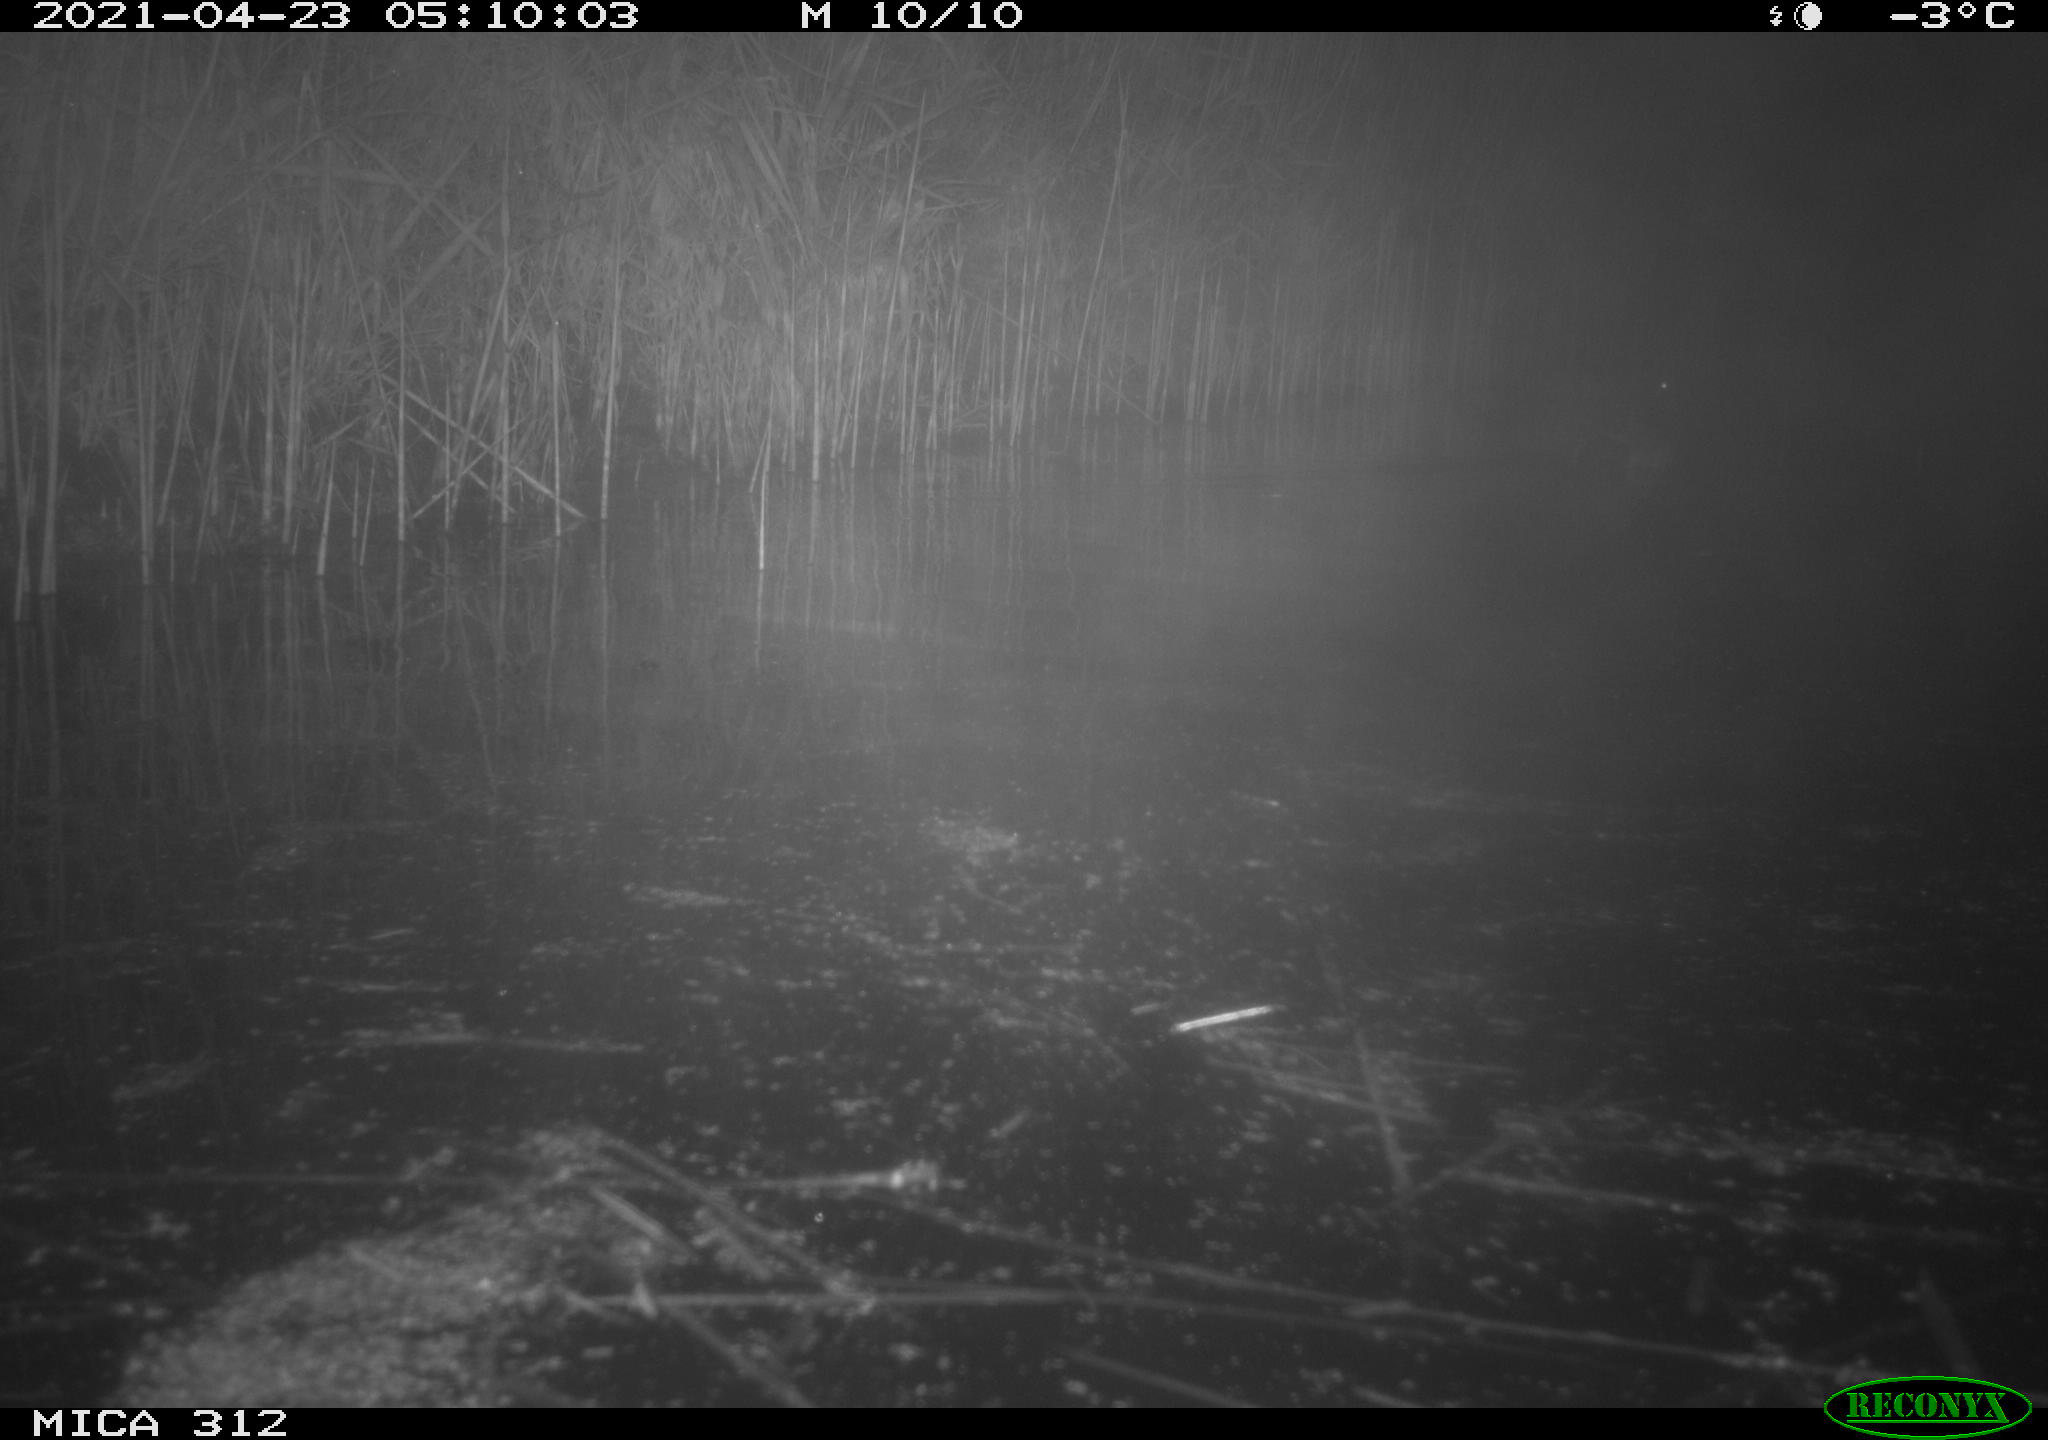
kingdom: Animalia
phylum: Chordata
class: Aves
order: Anseriformes
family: Anatidae
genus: Anas
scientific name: Anas platyrhynchos
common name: Mallard
